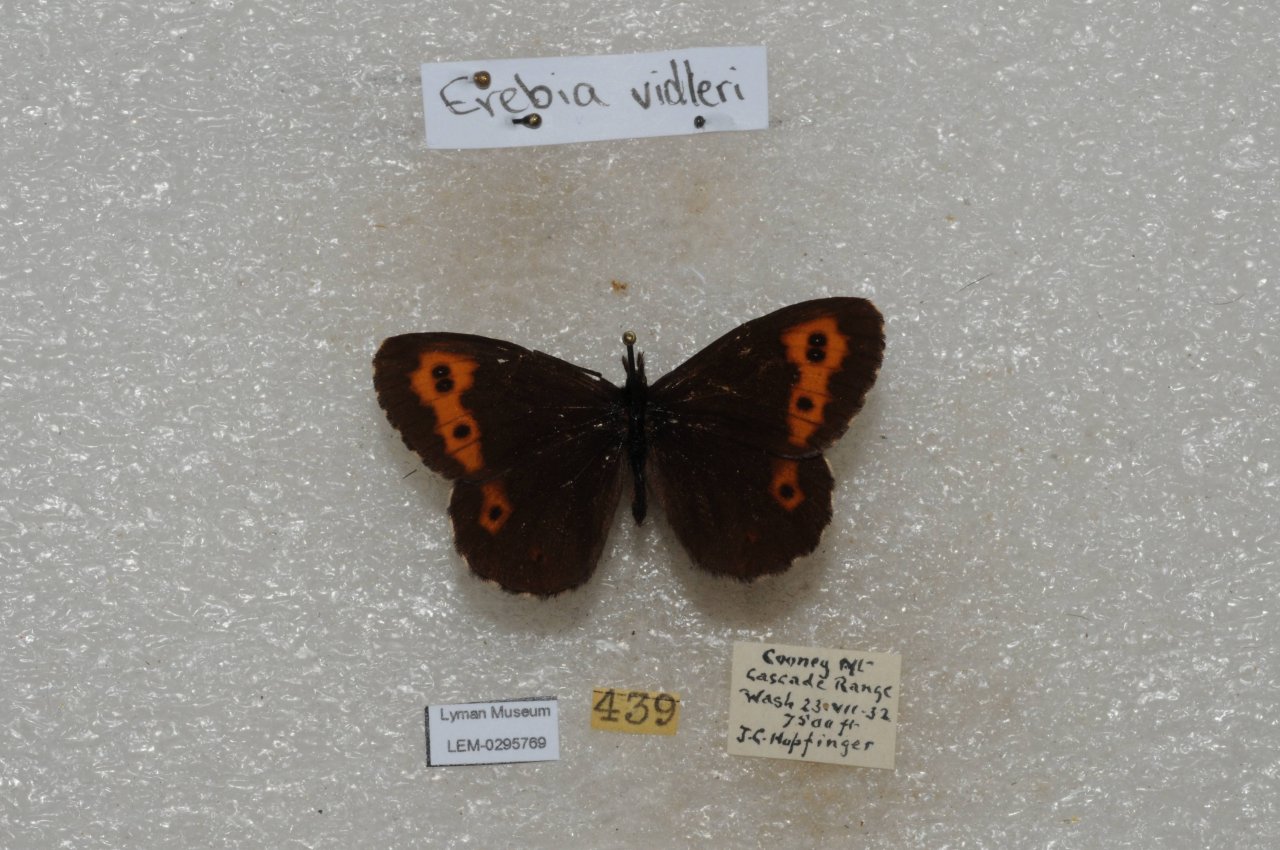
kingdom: Animalia
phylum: Arthropoda
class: Insecta
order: Lepidoptera
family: Nymphalidae
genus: Erebia
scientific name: Erebia vidleri
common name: Vidler's Alpine
